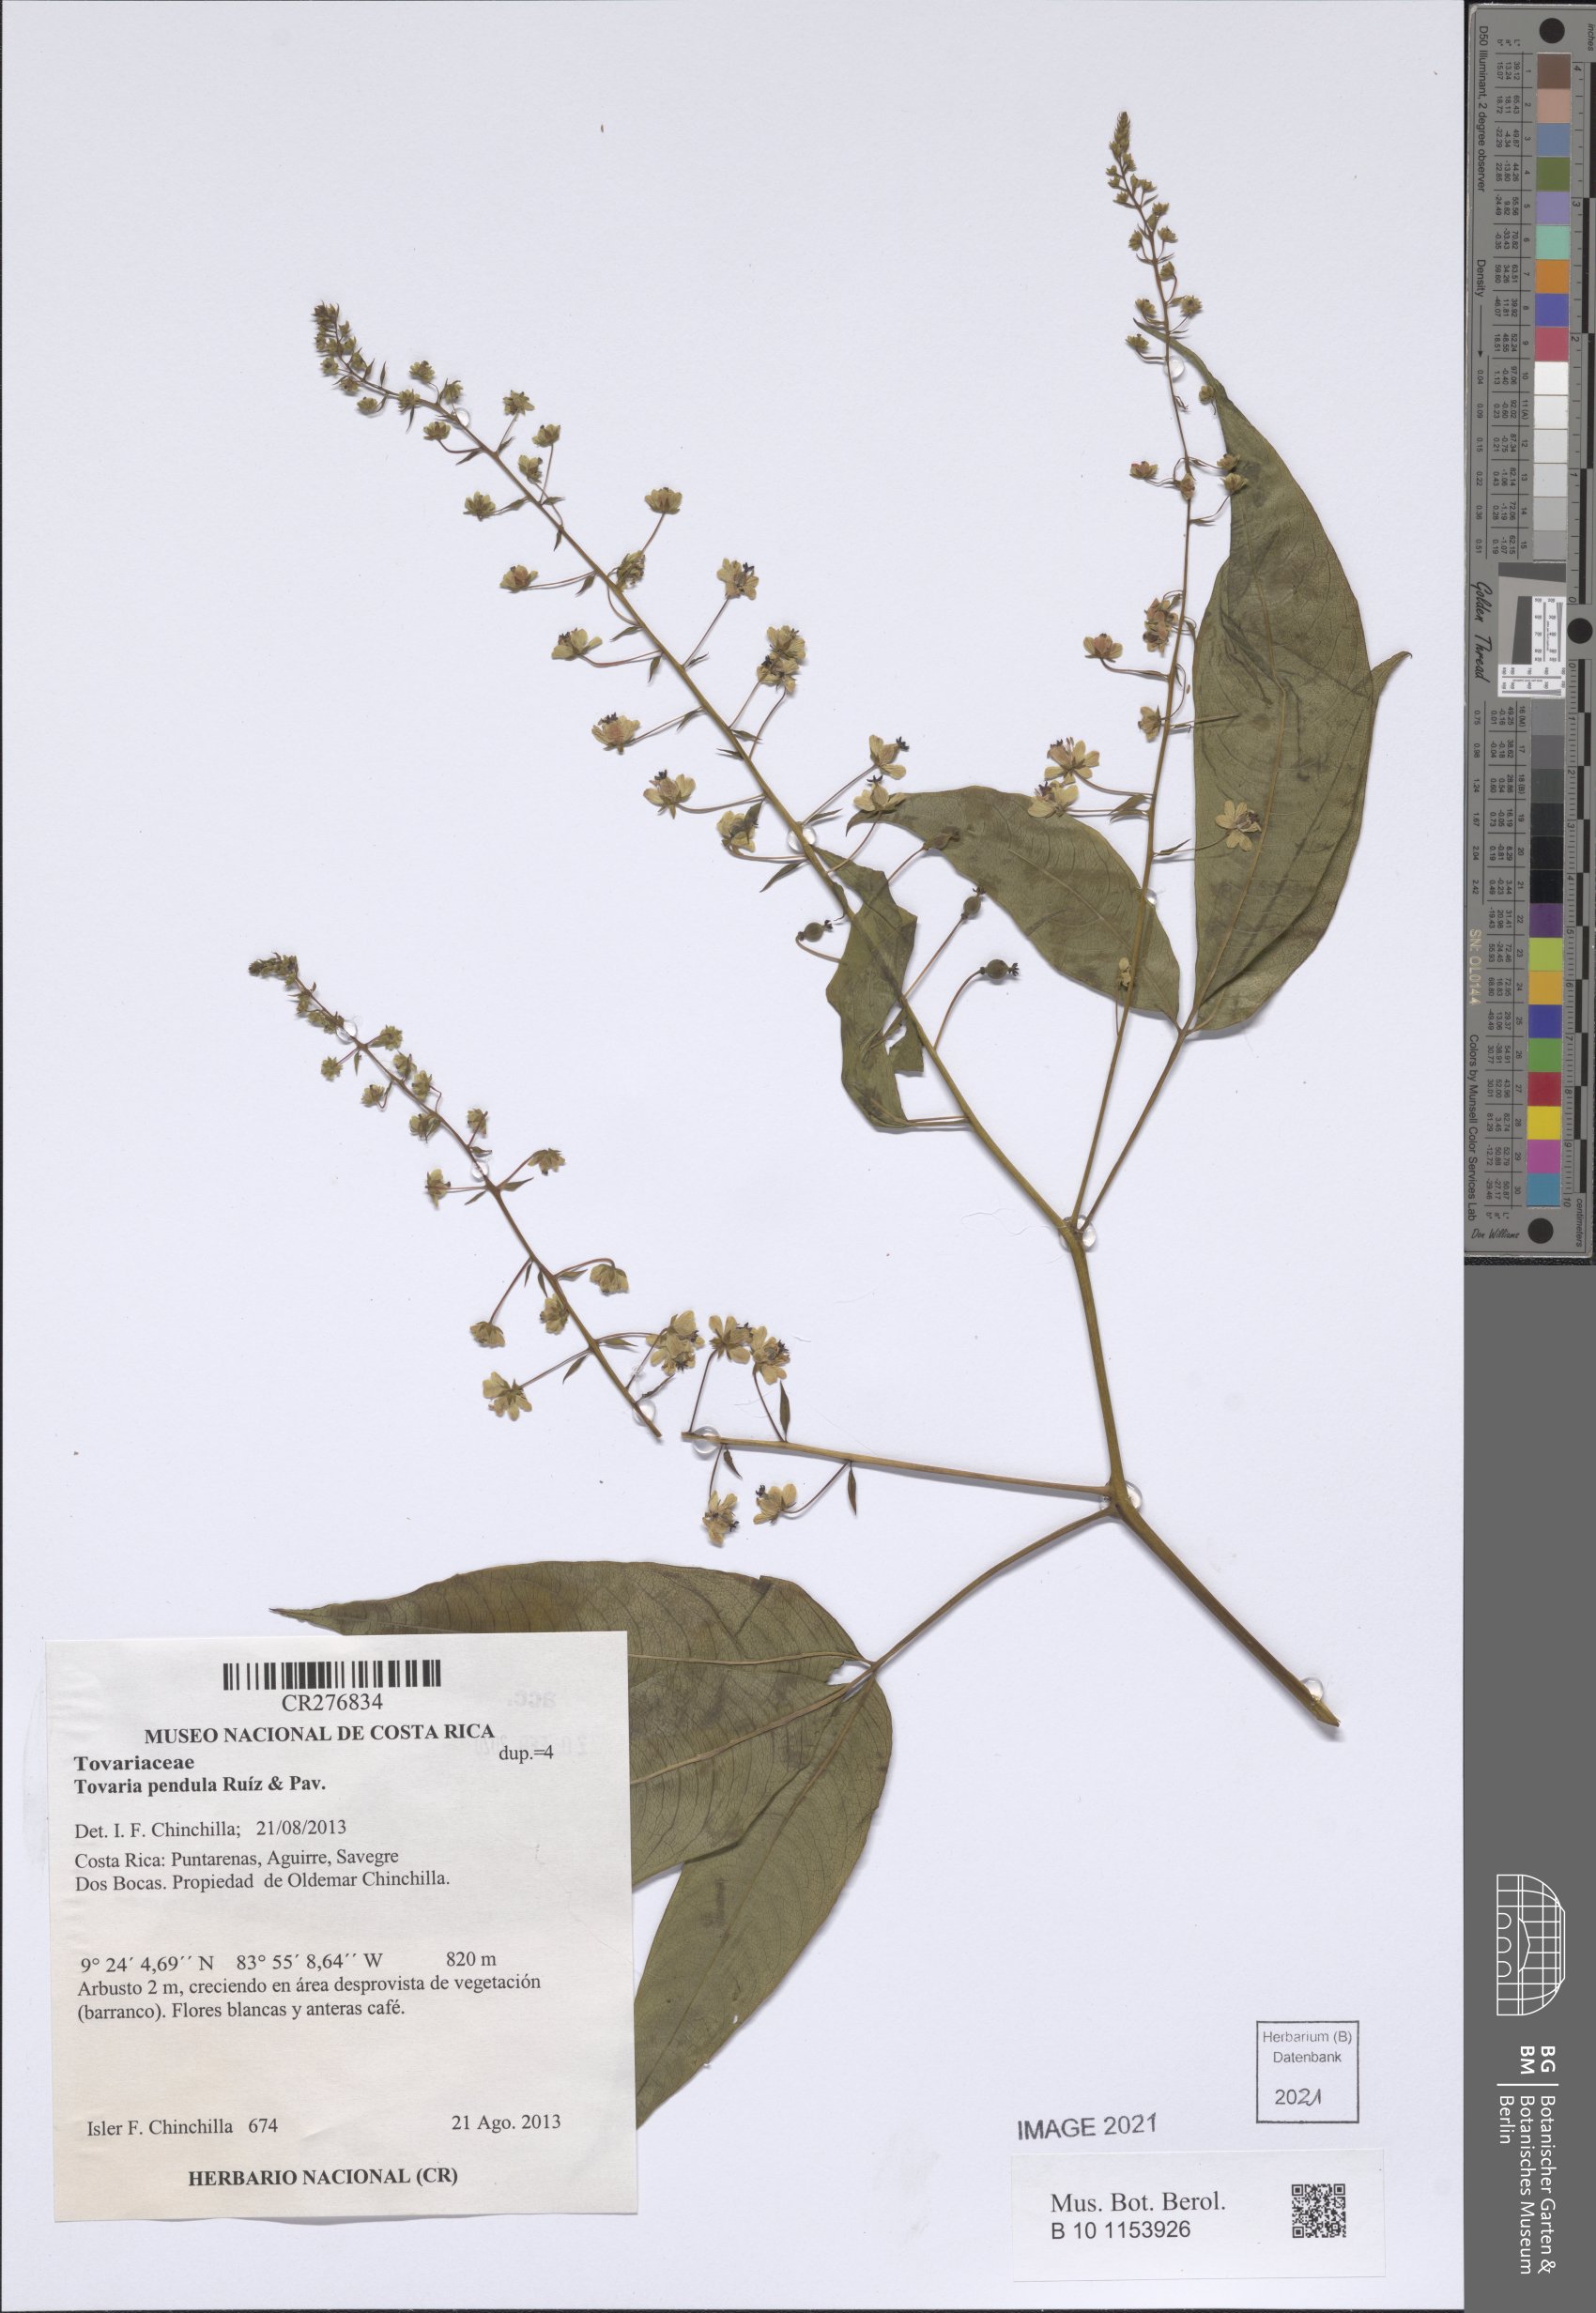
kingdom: Plantae
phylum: Tracheophyta
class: Magnoliopsida
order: Brassicales
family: Tovariaceae
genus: Tovaria
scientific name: Tovaria pendula
